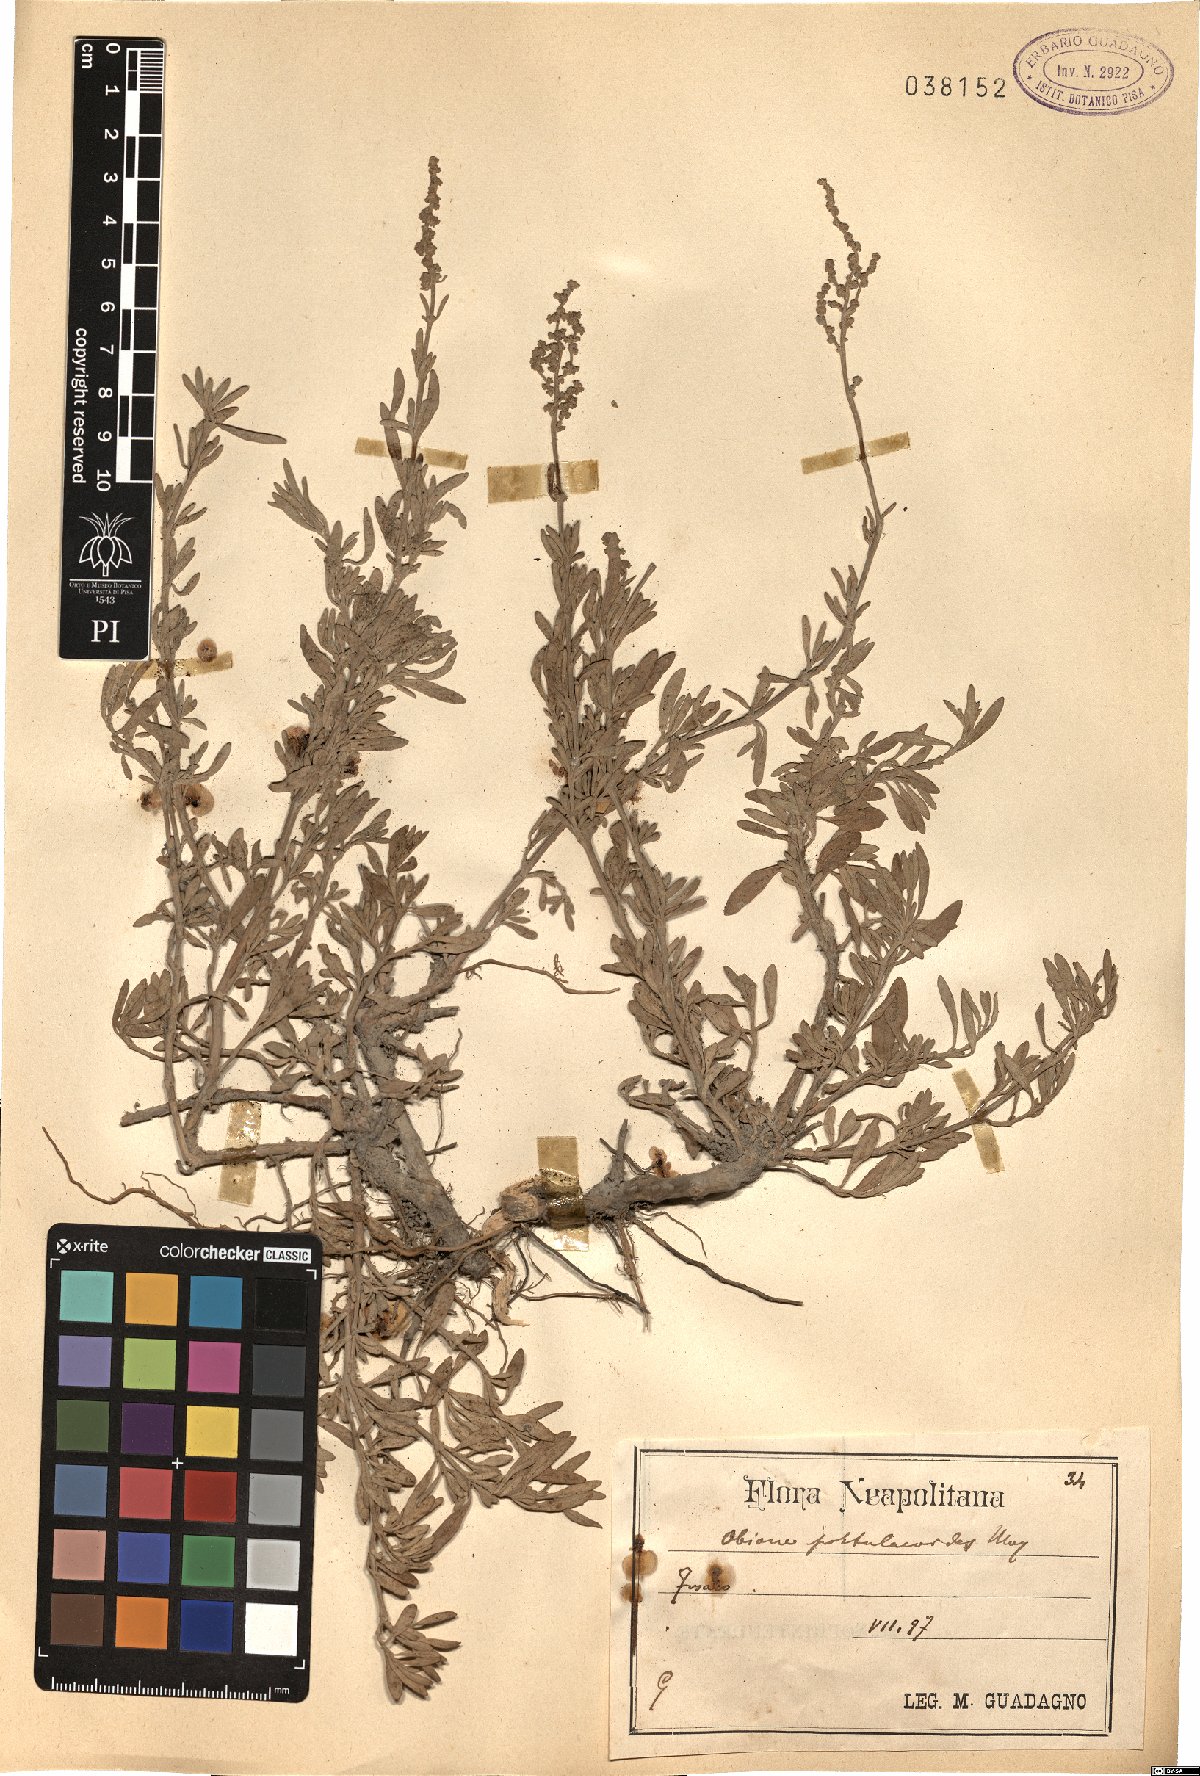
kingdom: Plantae
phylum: Tracheophyta
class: Magnoliopsida
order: Caryophyllales
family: Amaranthaceae
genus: Halimione
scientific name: Halimione portulacoides
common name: Sea-purslane
